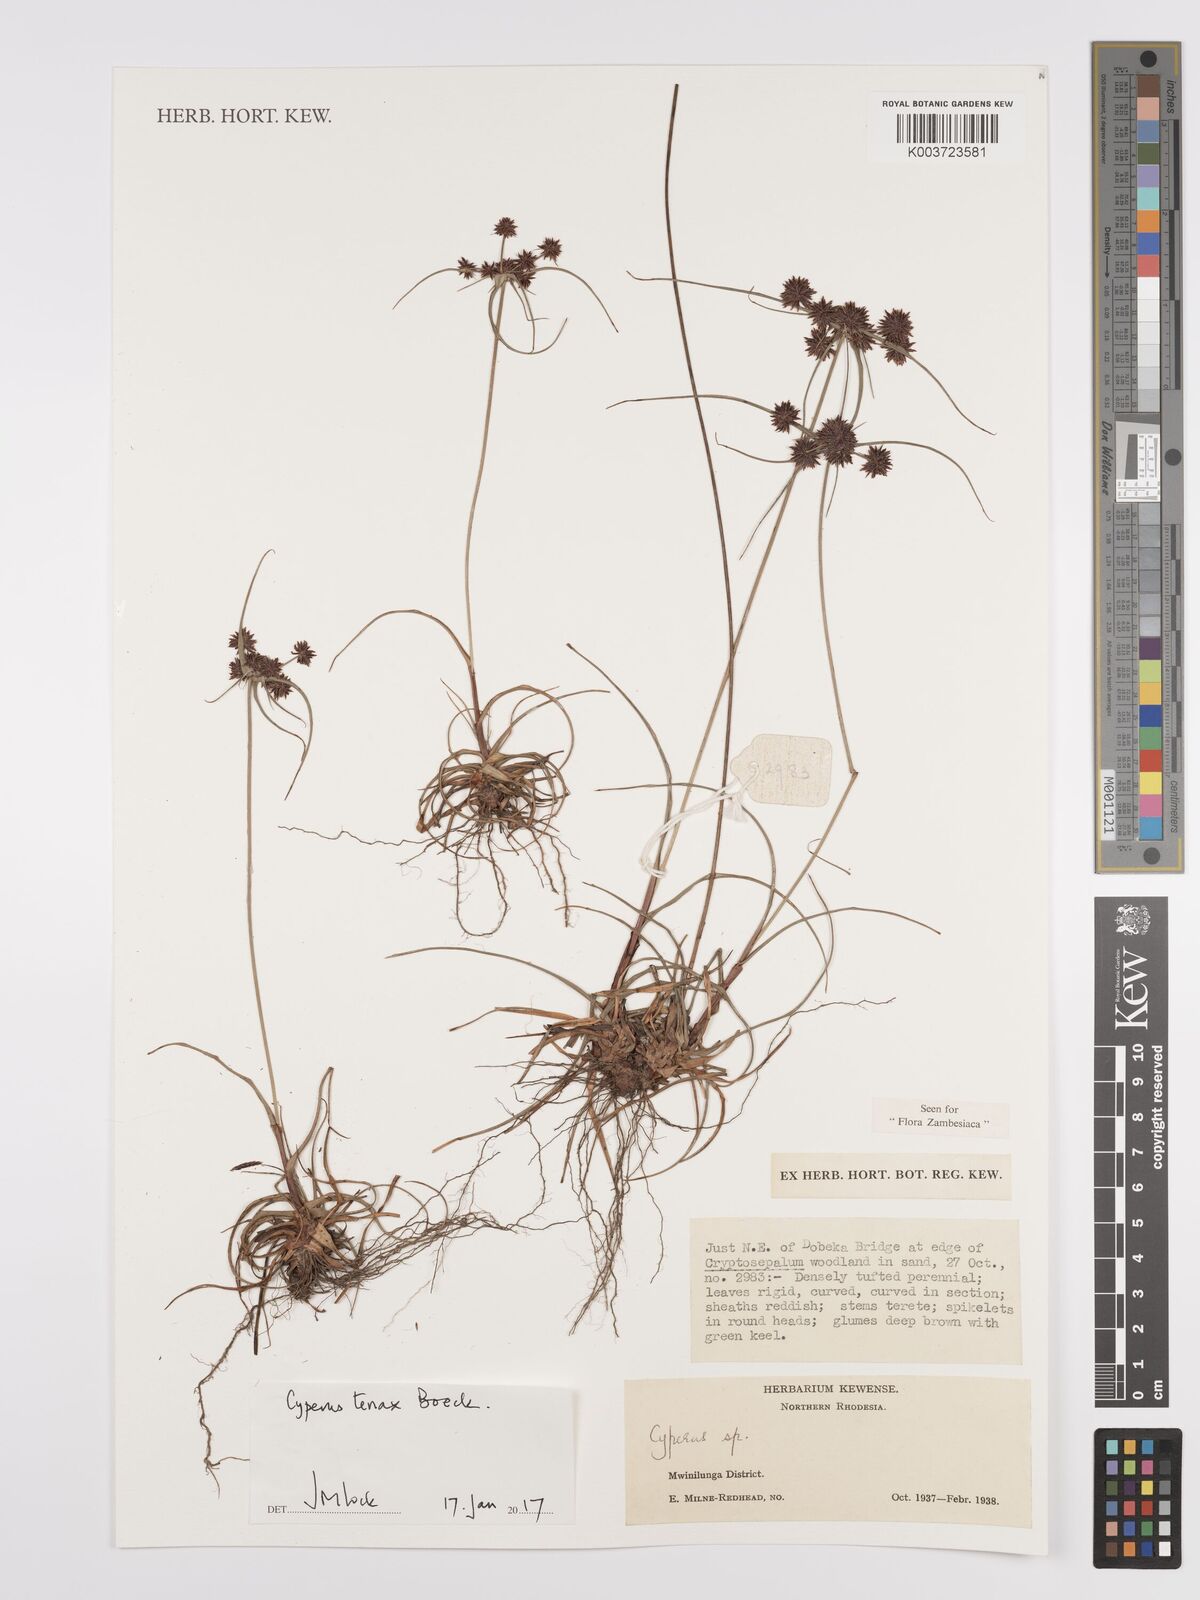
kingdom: Plantae
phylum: Tracheophyta
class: Liliopsida
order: Poales
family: Cyperaceae
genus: Cyperus
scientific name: Cyperus tenax
